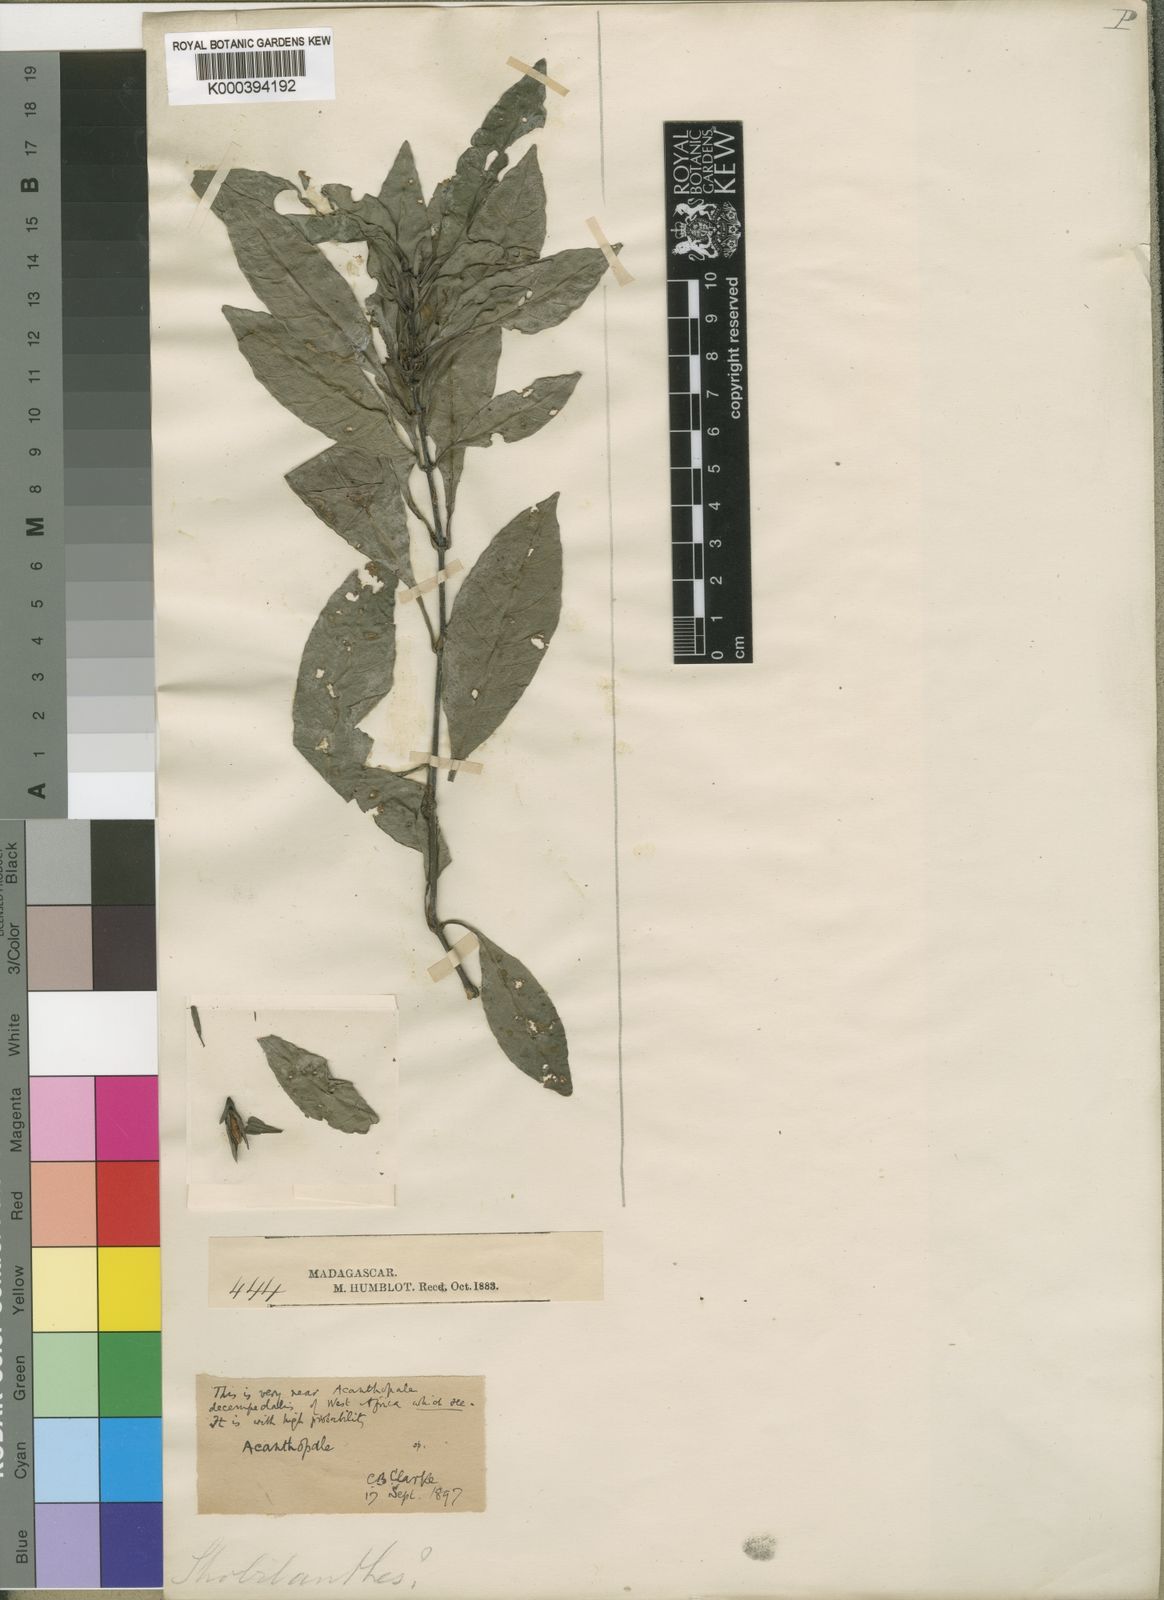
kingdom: Plantae
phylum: Tracheophyta
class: Magnoliopsida
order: Lamiales
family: Acanthaceae
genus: Acanthopale
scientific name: Acanthopale humblotii
